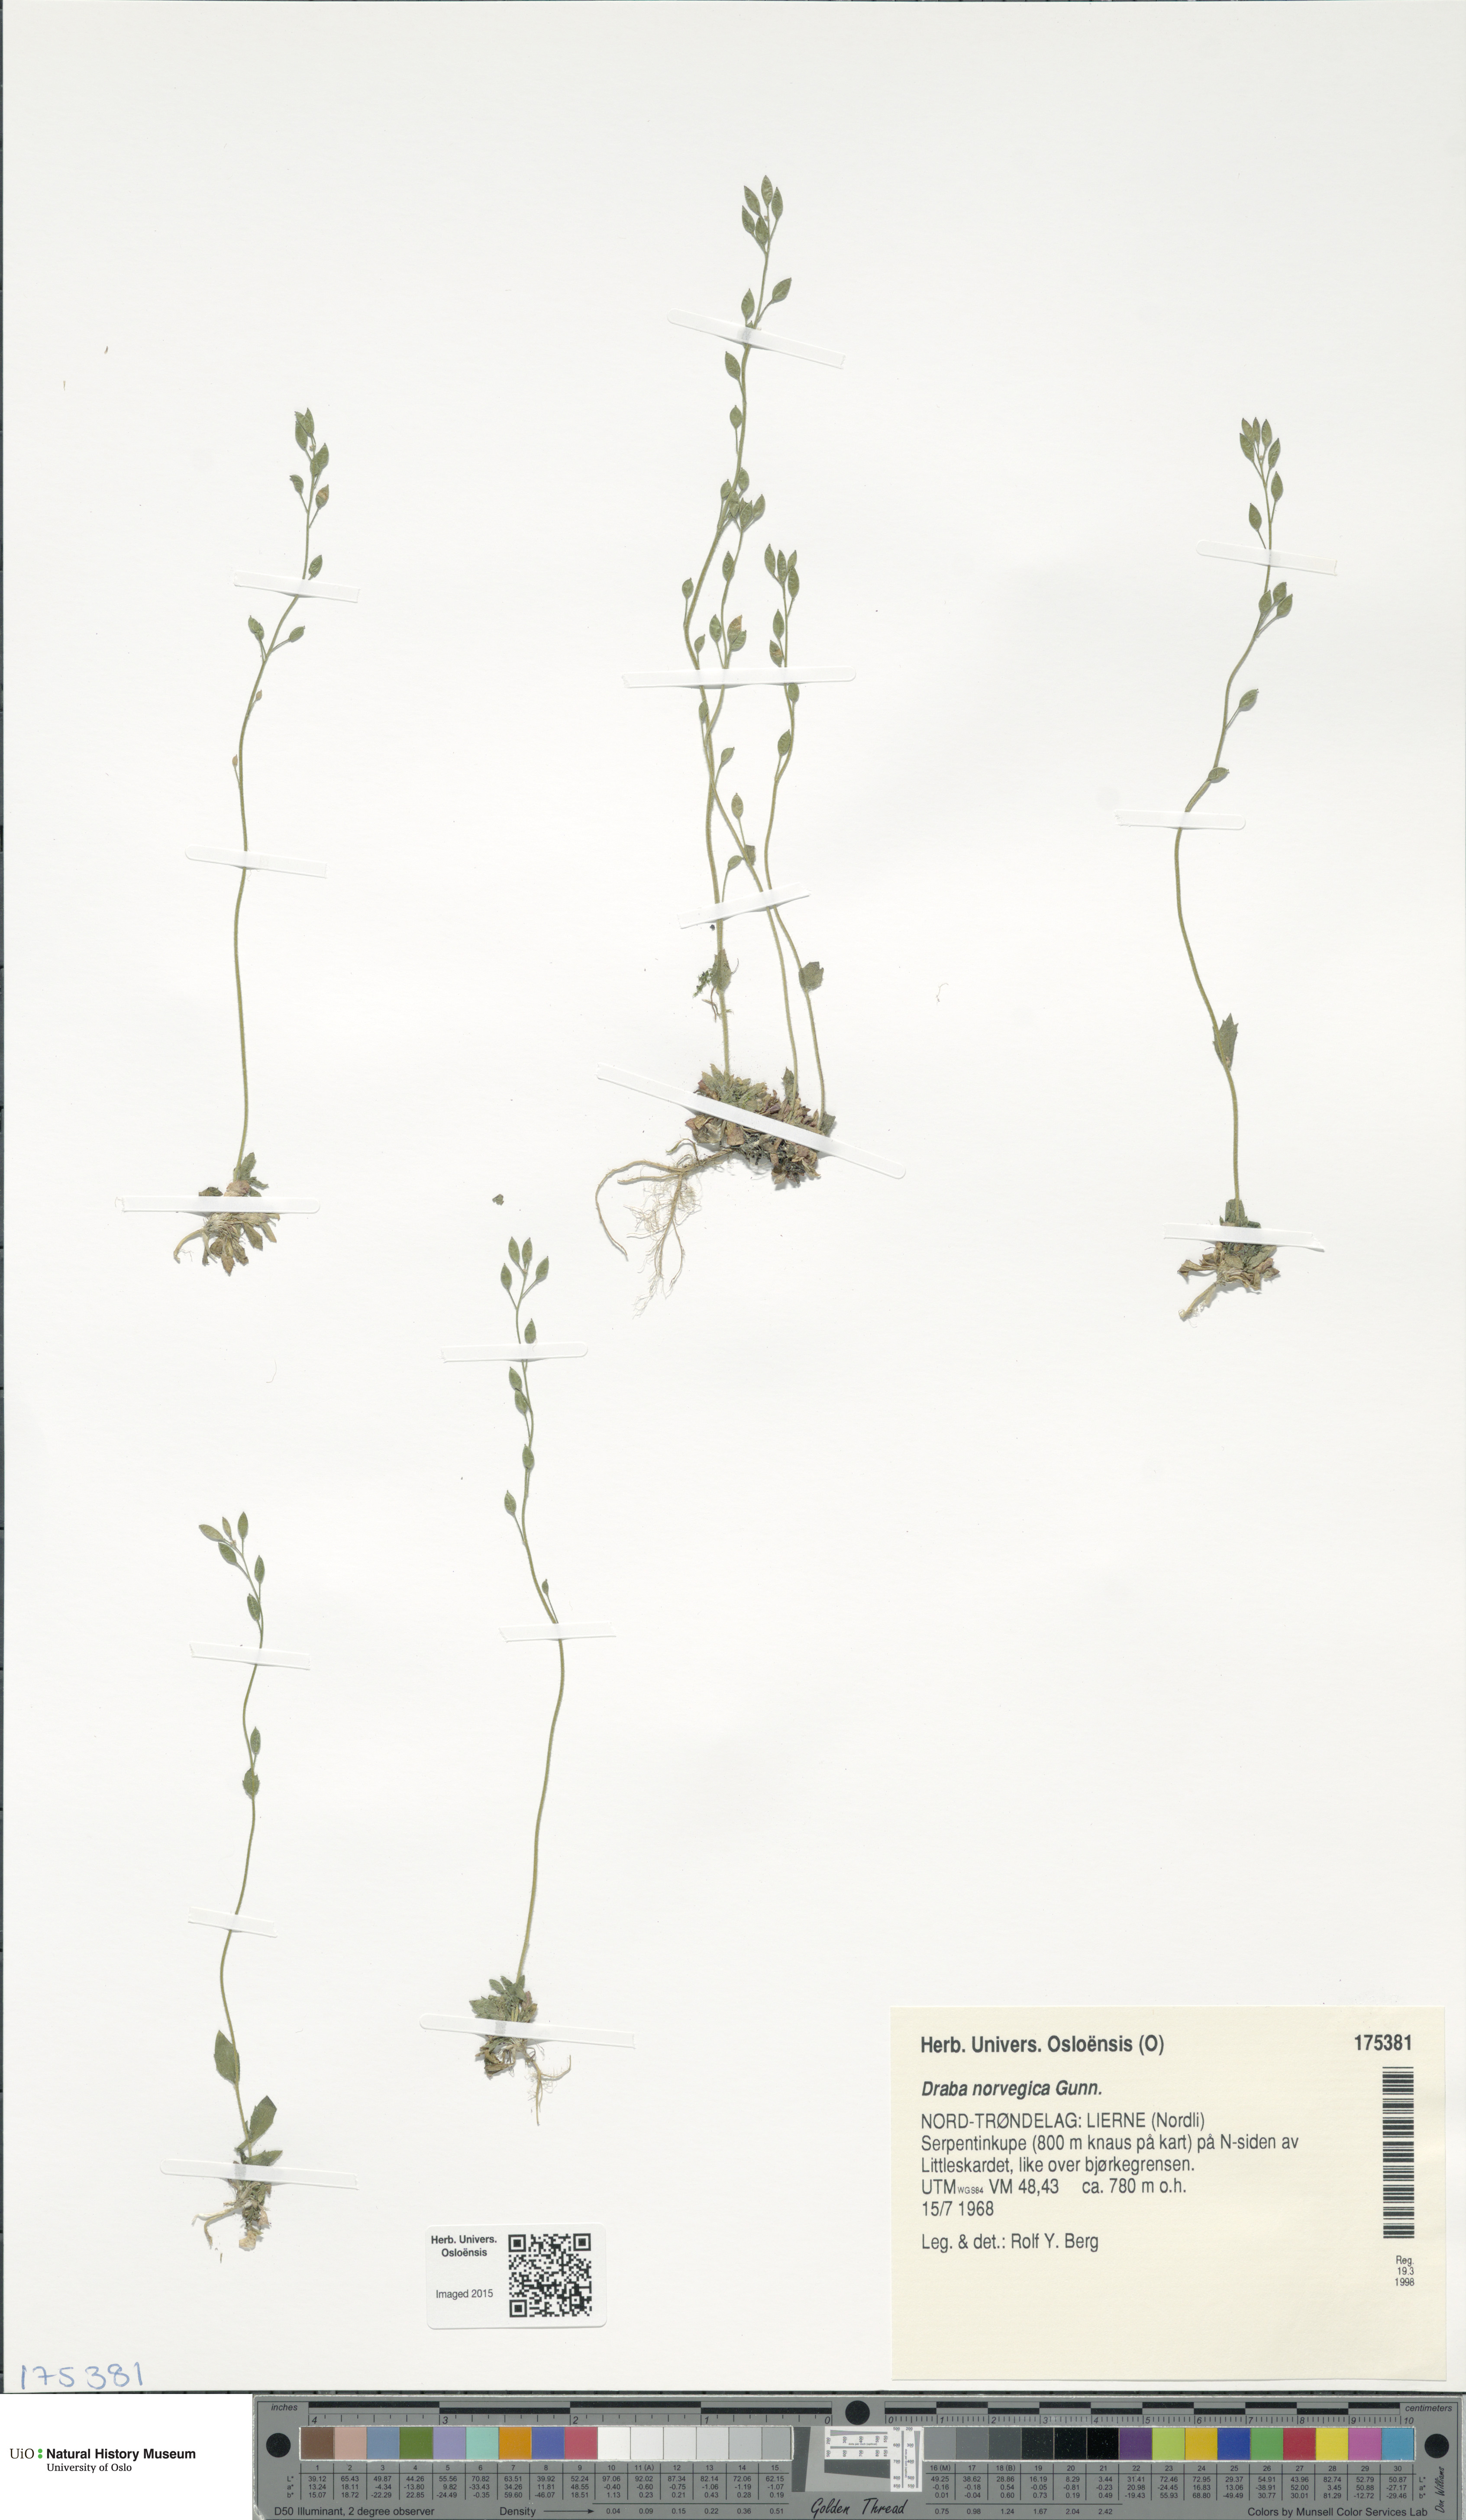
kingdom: Plantae
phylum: Tracheophyta
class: Magnoliopsida
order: Brassicales
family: Brassicaceae
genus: Draba
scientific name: Draba norvegica
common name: Rock whitlowgrass
